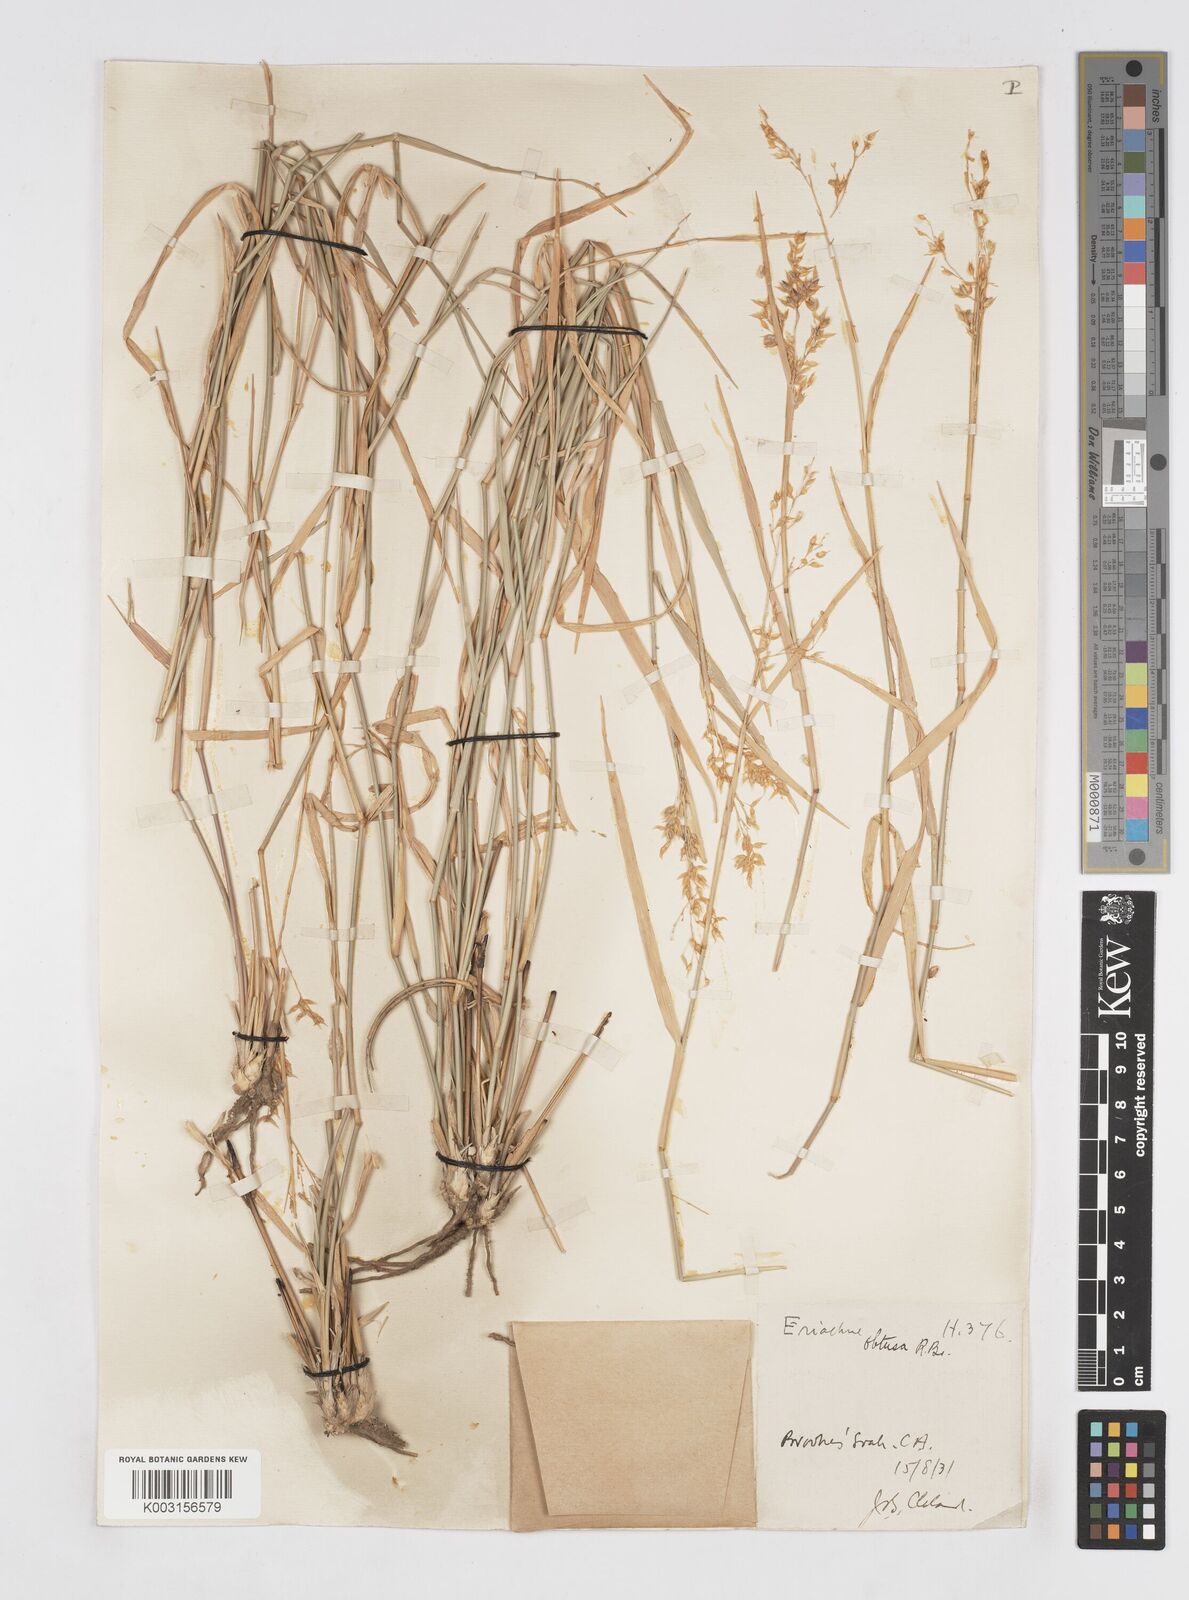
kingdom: Plantae
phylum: Tracheophyta
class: Liliopsida
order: Poales
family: Poaceae
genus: Eriachne
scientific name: Eriachne obtusa
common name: Northern wanderrie grass
